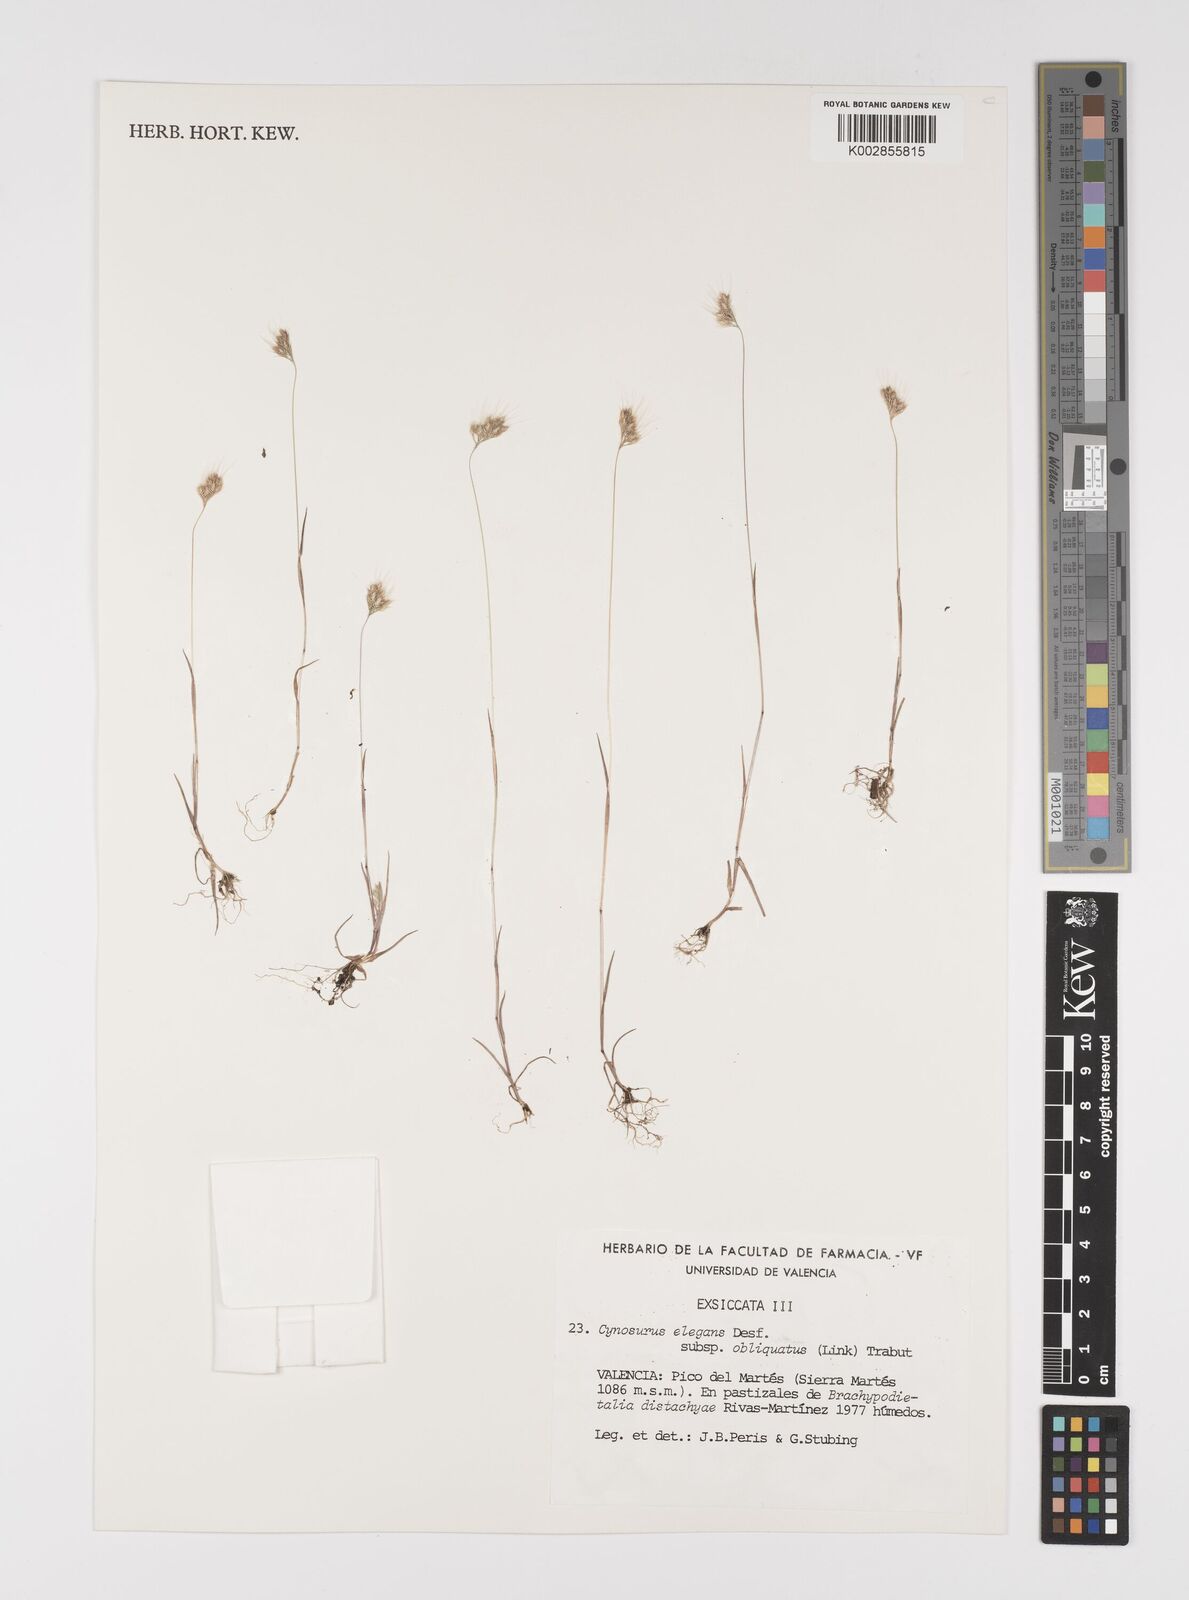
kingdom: Plantae
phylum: Tracheophyta
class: Liliopsida
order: Poales
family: Poaceae
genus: Cynosurus
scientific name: Cynosurus elegans
